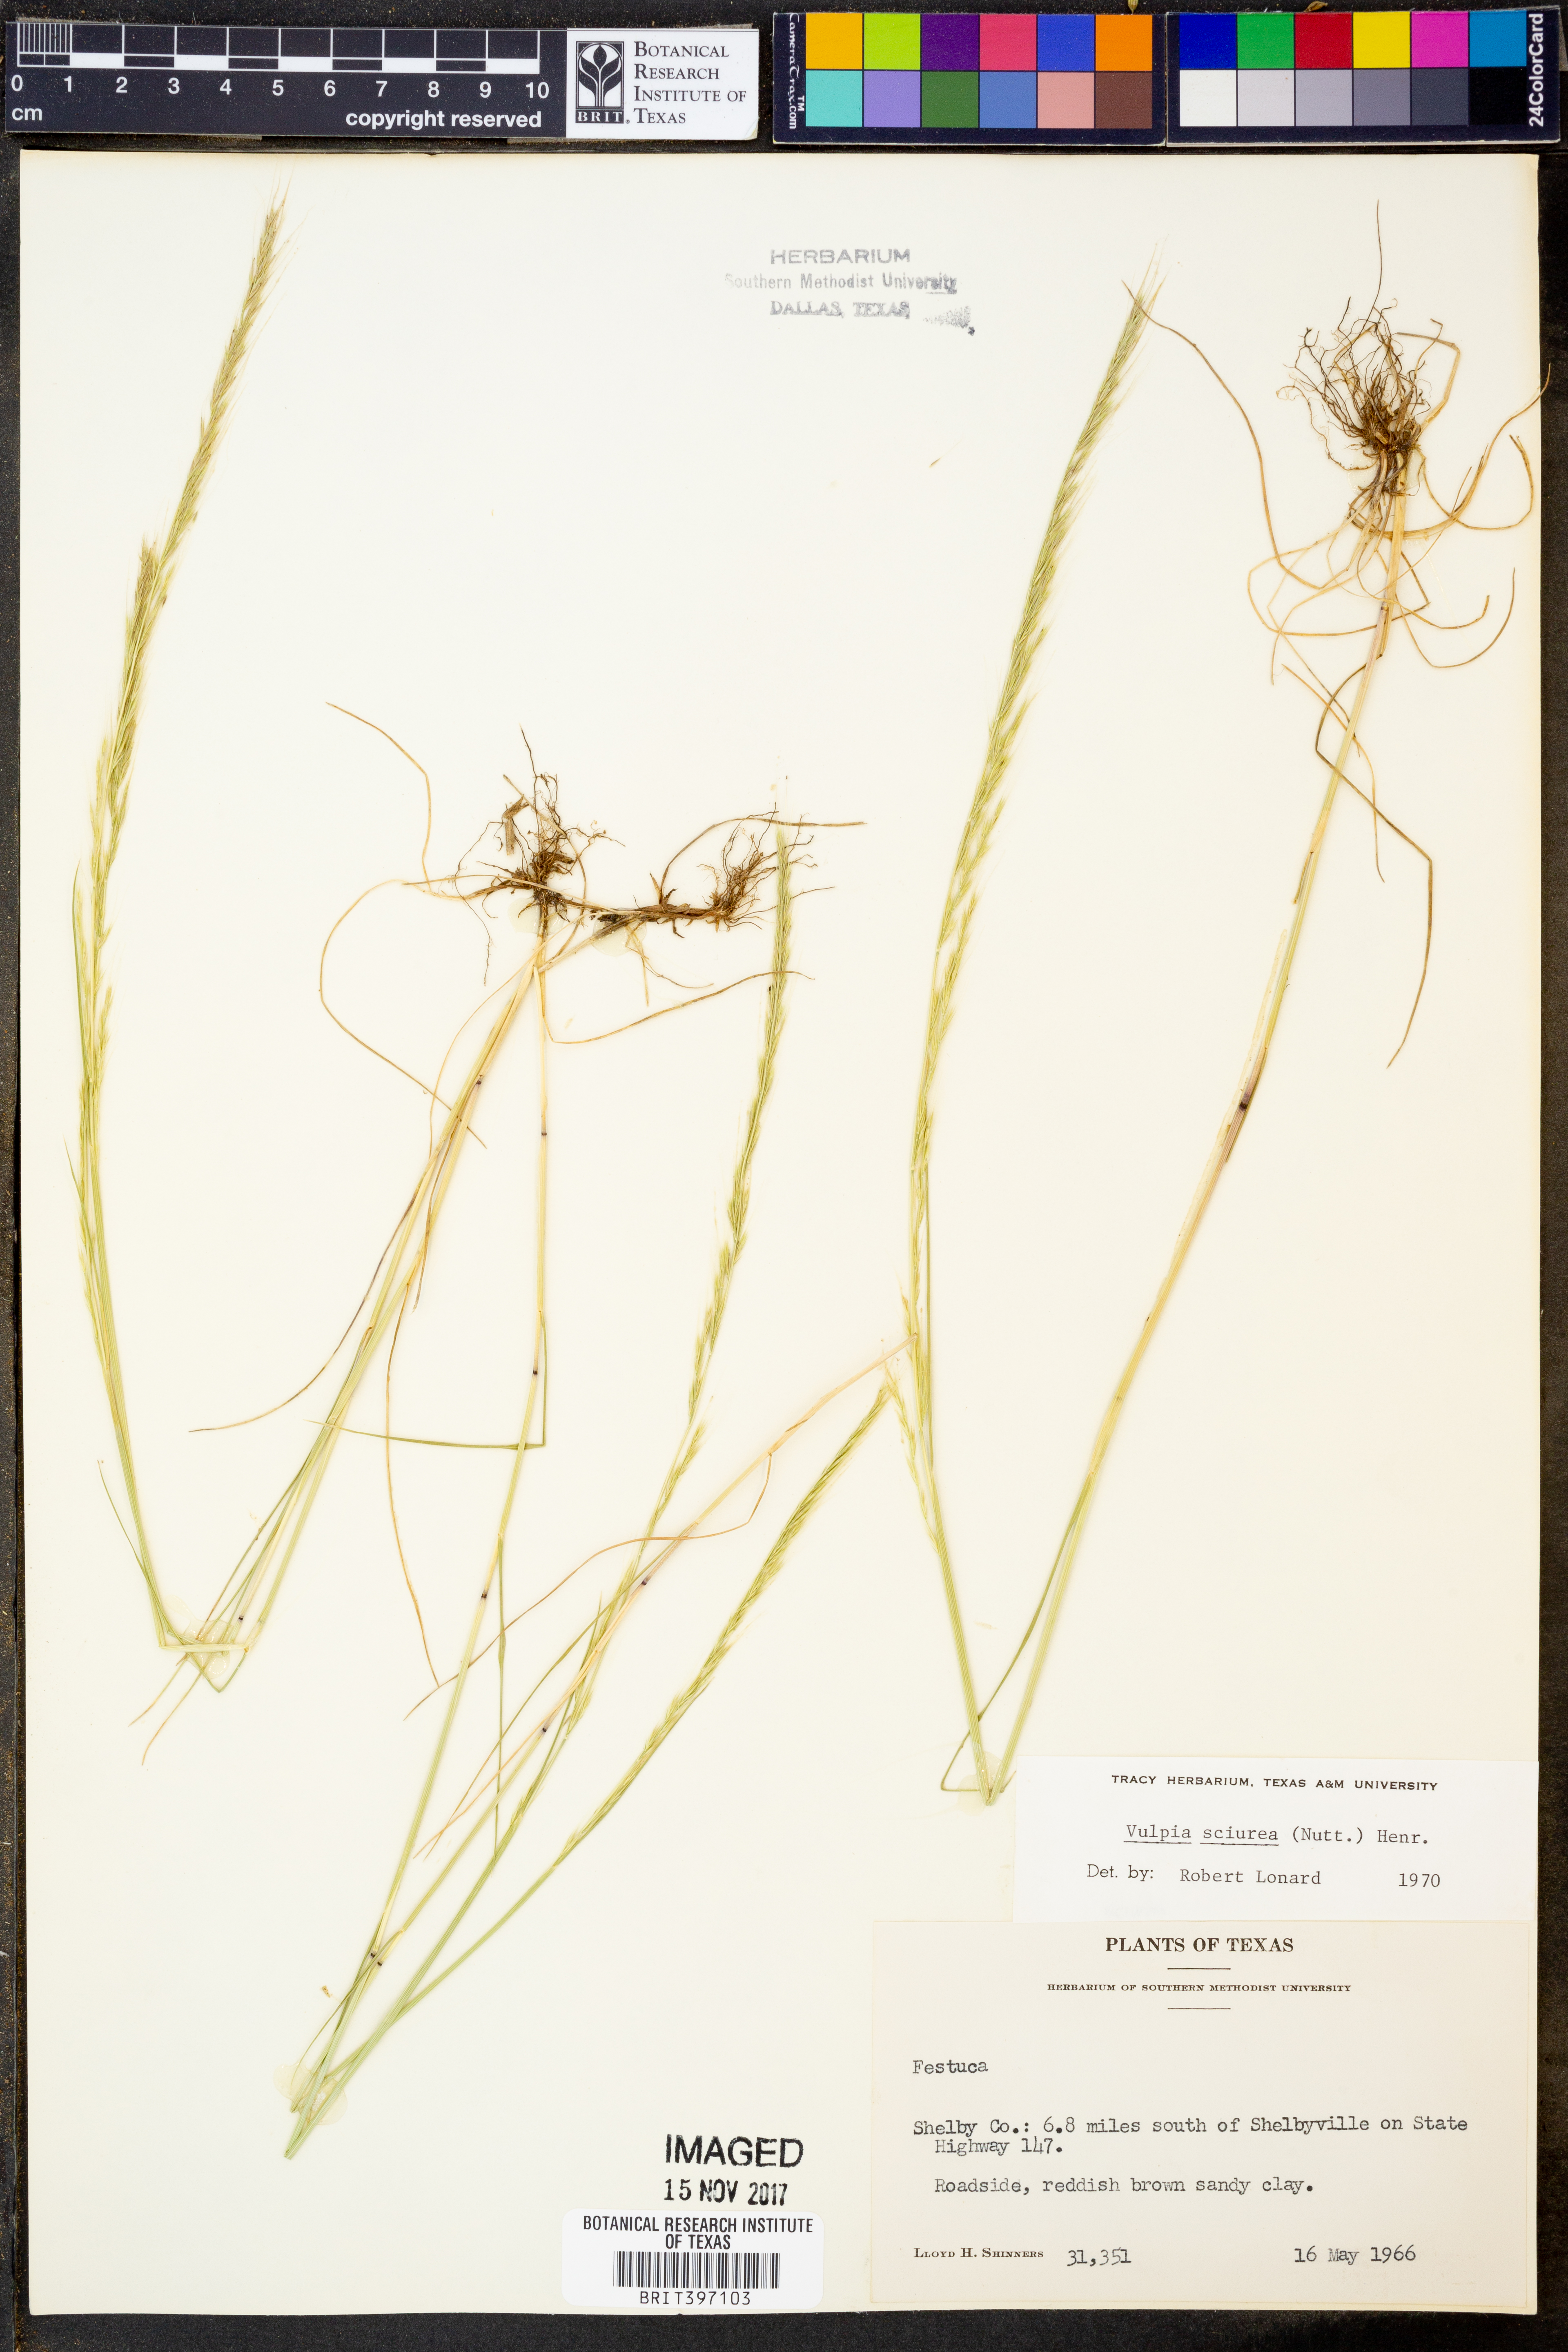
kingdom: Plantae
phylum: Tracheophyta
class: Liliopsida
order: Poales
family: Poaceae
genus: Festuca
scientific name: Festuca sciurea
